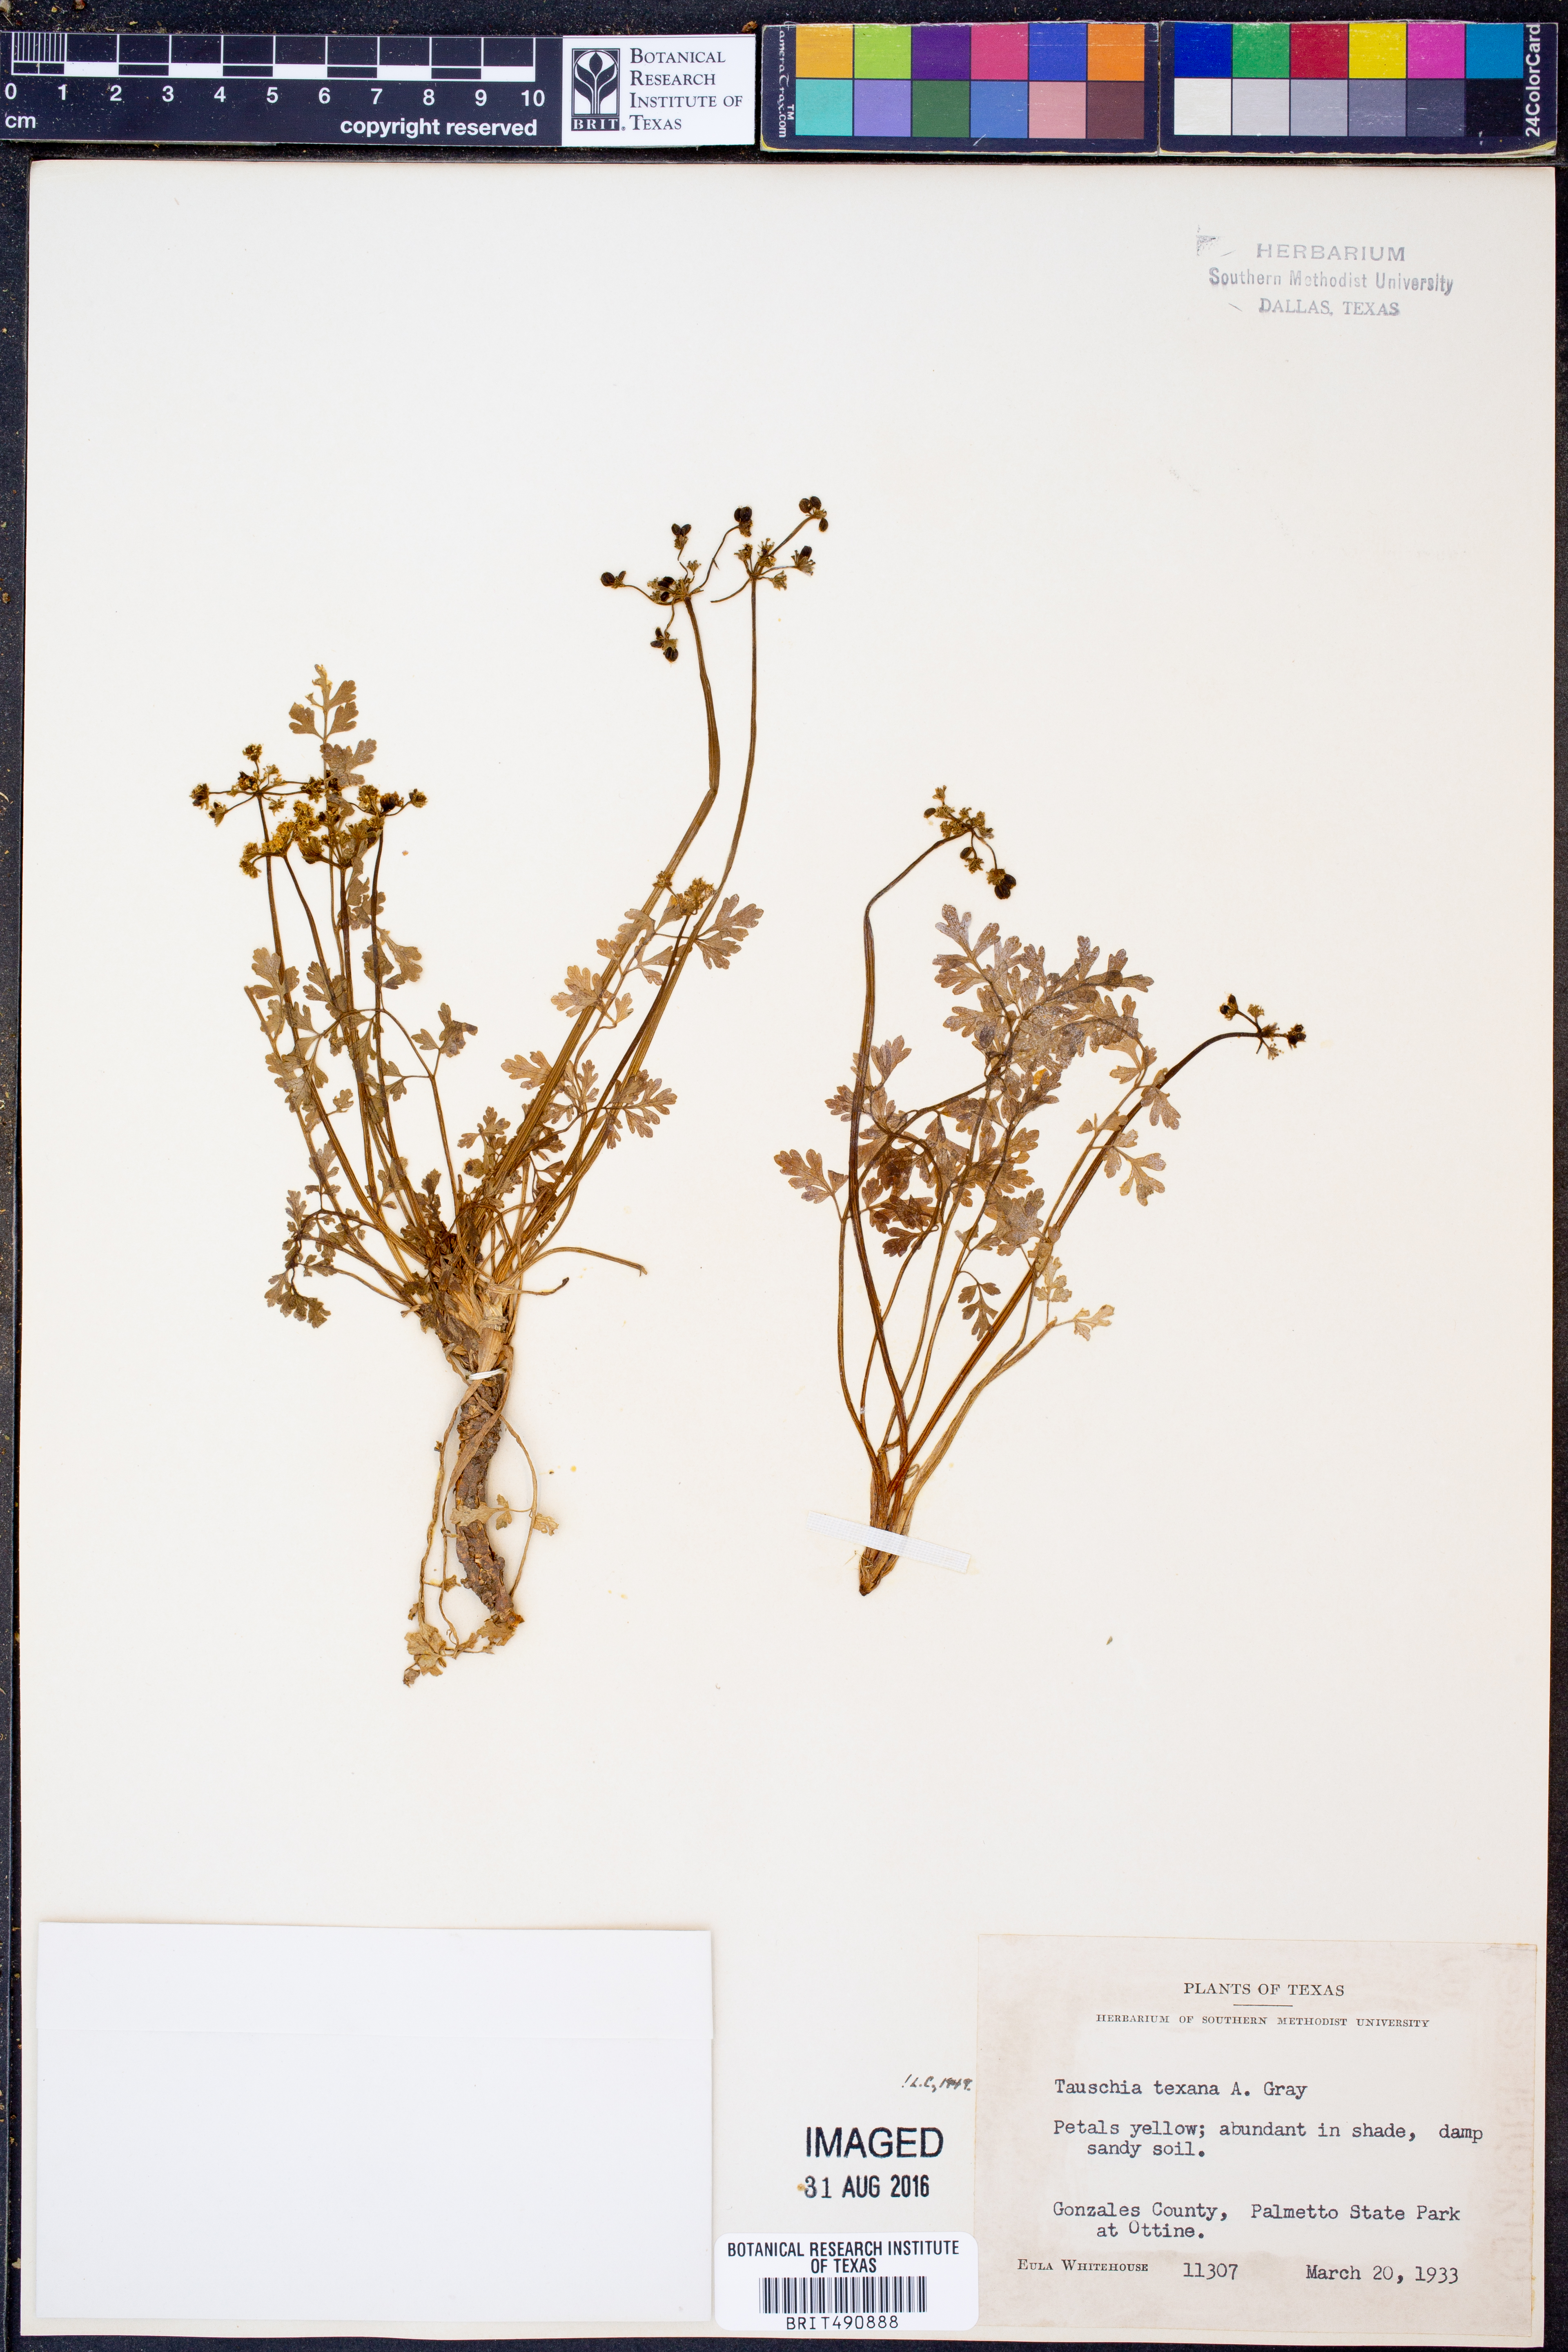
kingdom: Plantae
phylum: Tracheophyta
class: Magnoliopsida
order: Apiales
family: Apiaceae
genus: Tauschia
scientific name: Tauschia texana
